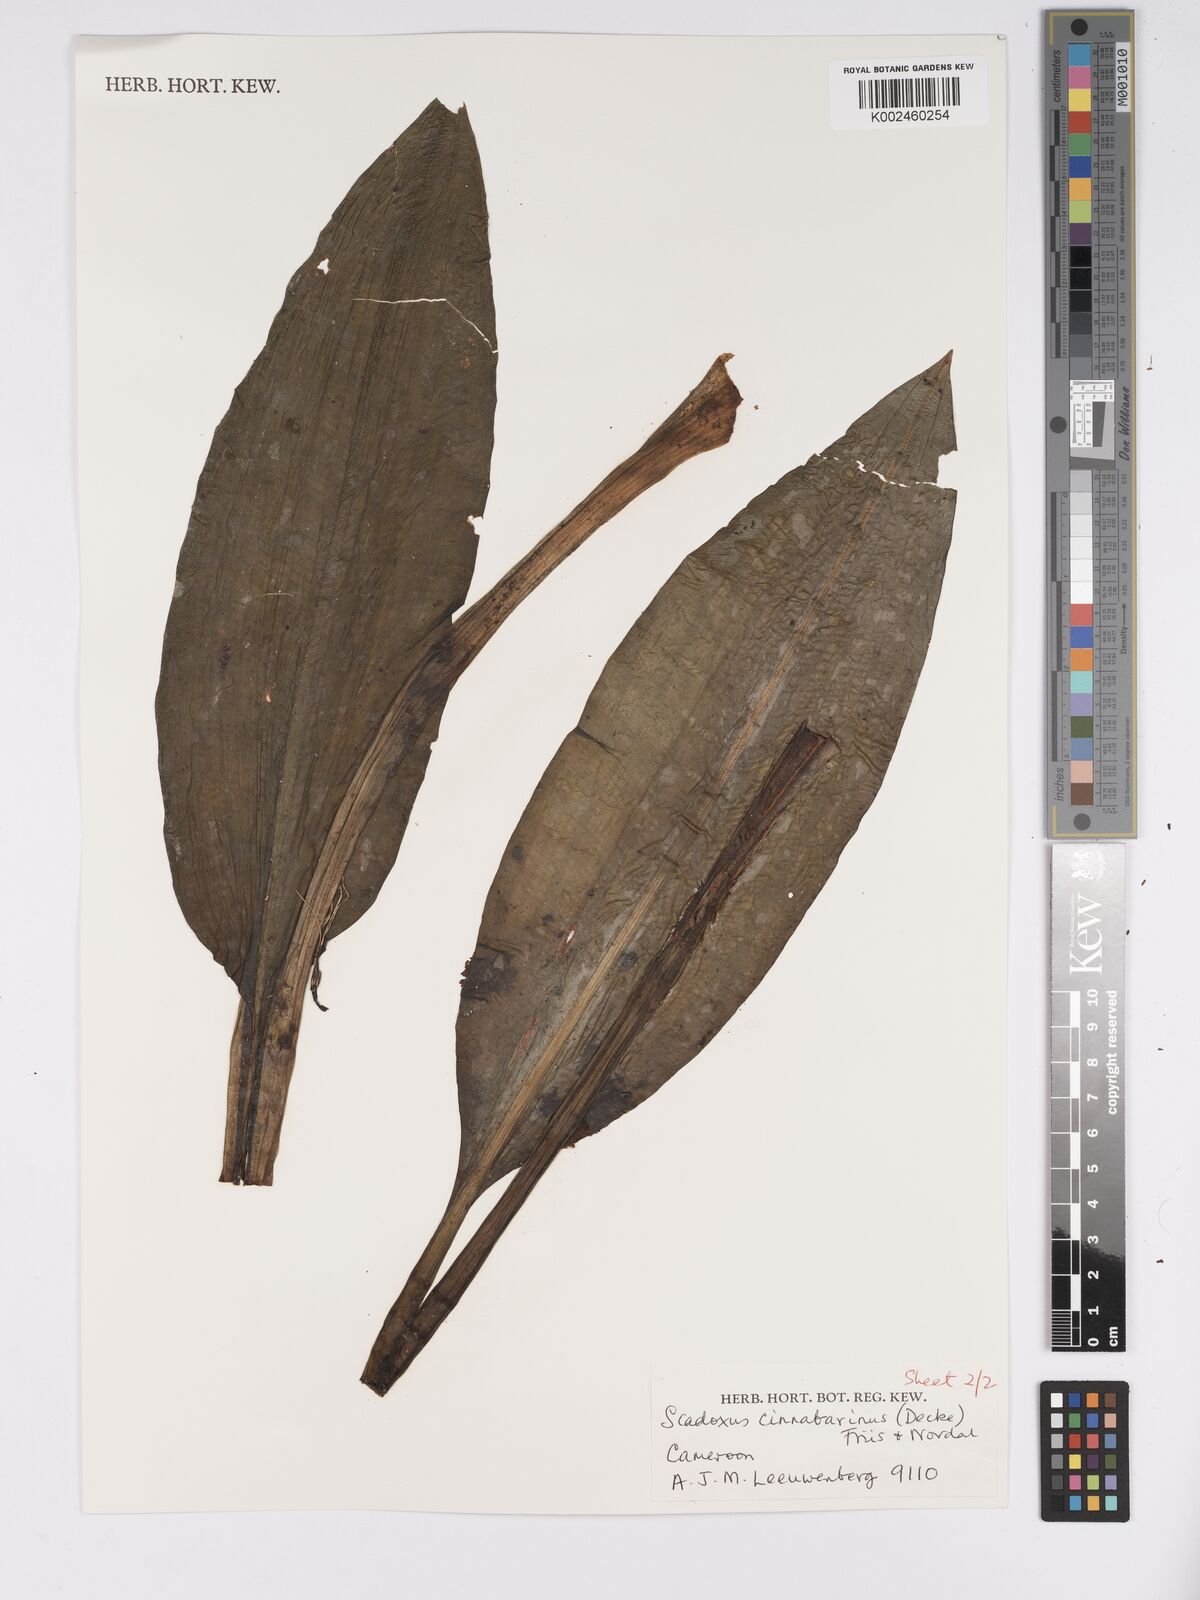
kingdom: Plantae
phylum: Tracheophyta
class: Liliopsida
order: Asparagales
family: Amaryllidaceae
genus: Scadoxus
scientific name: Scadoxus cinnabarinus
